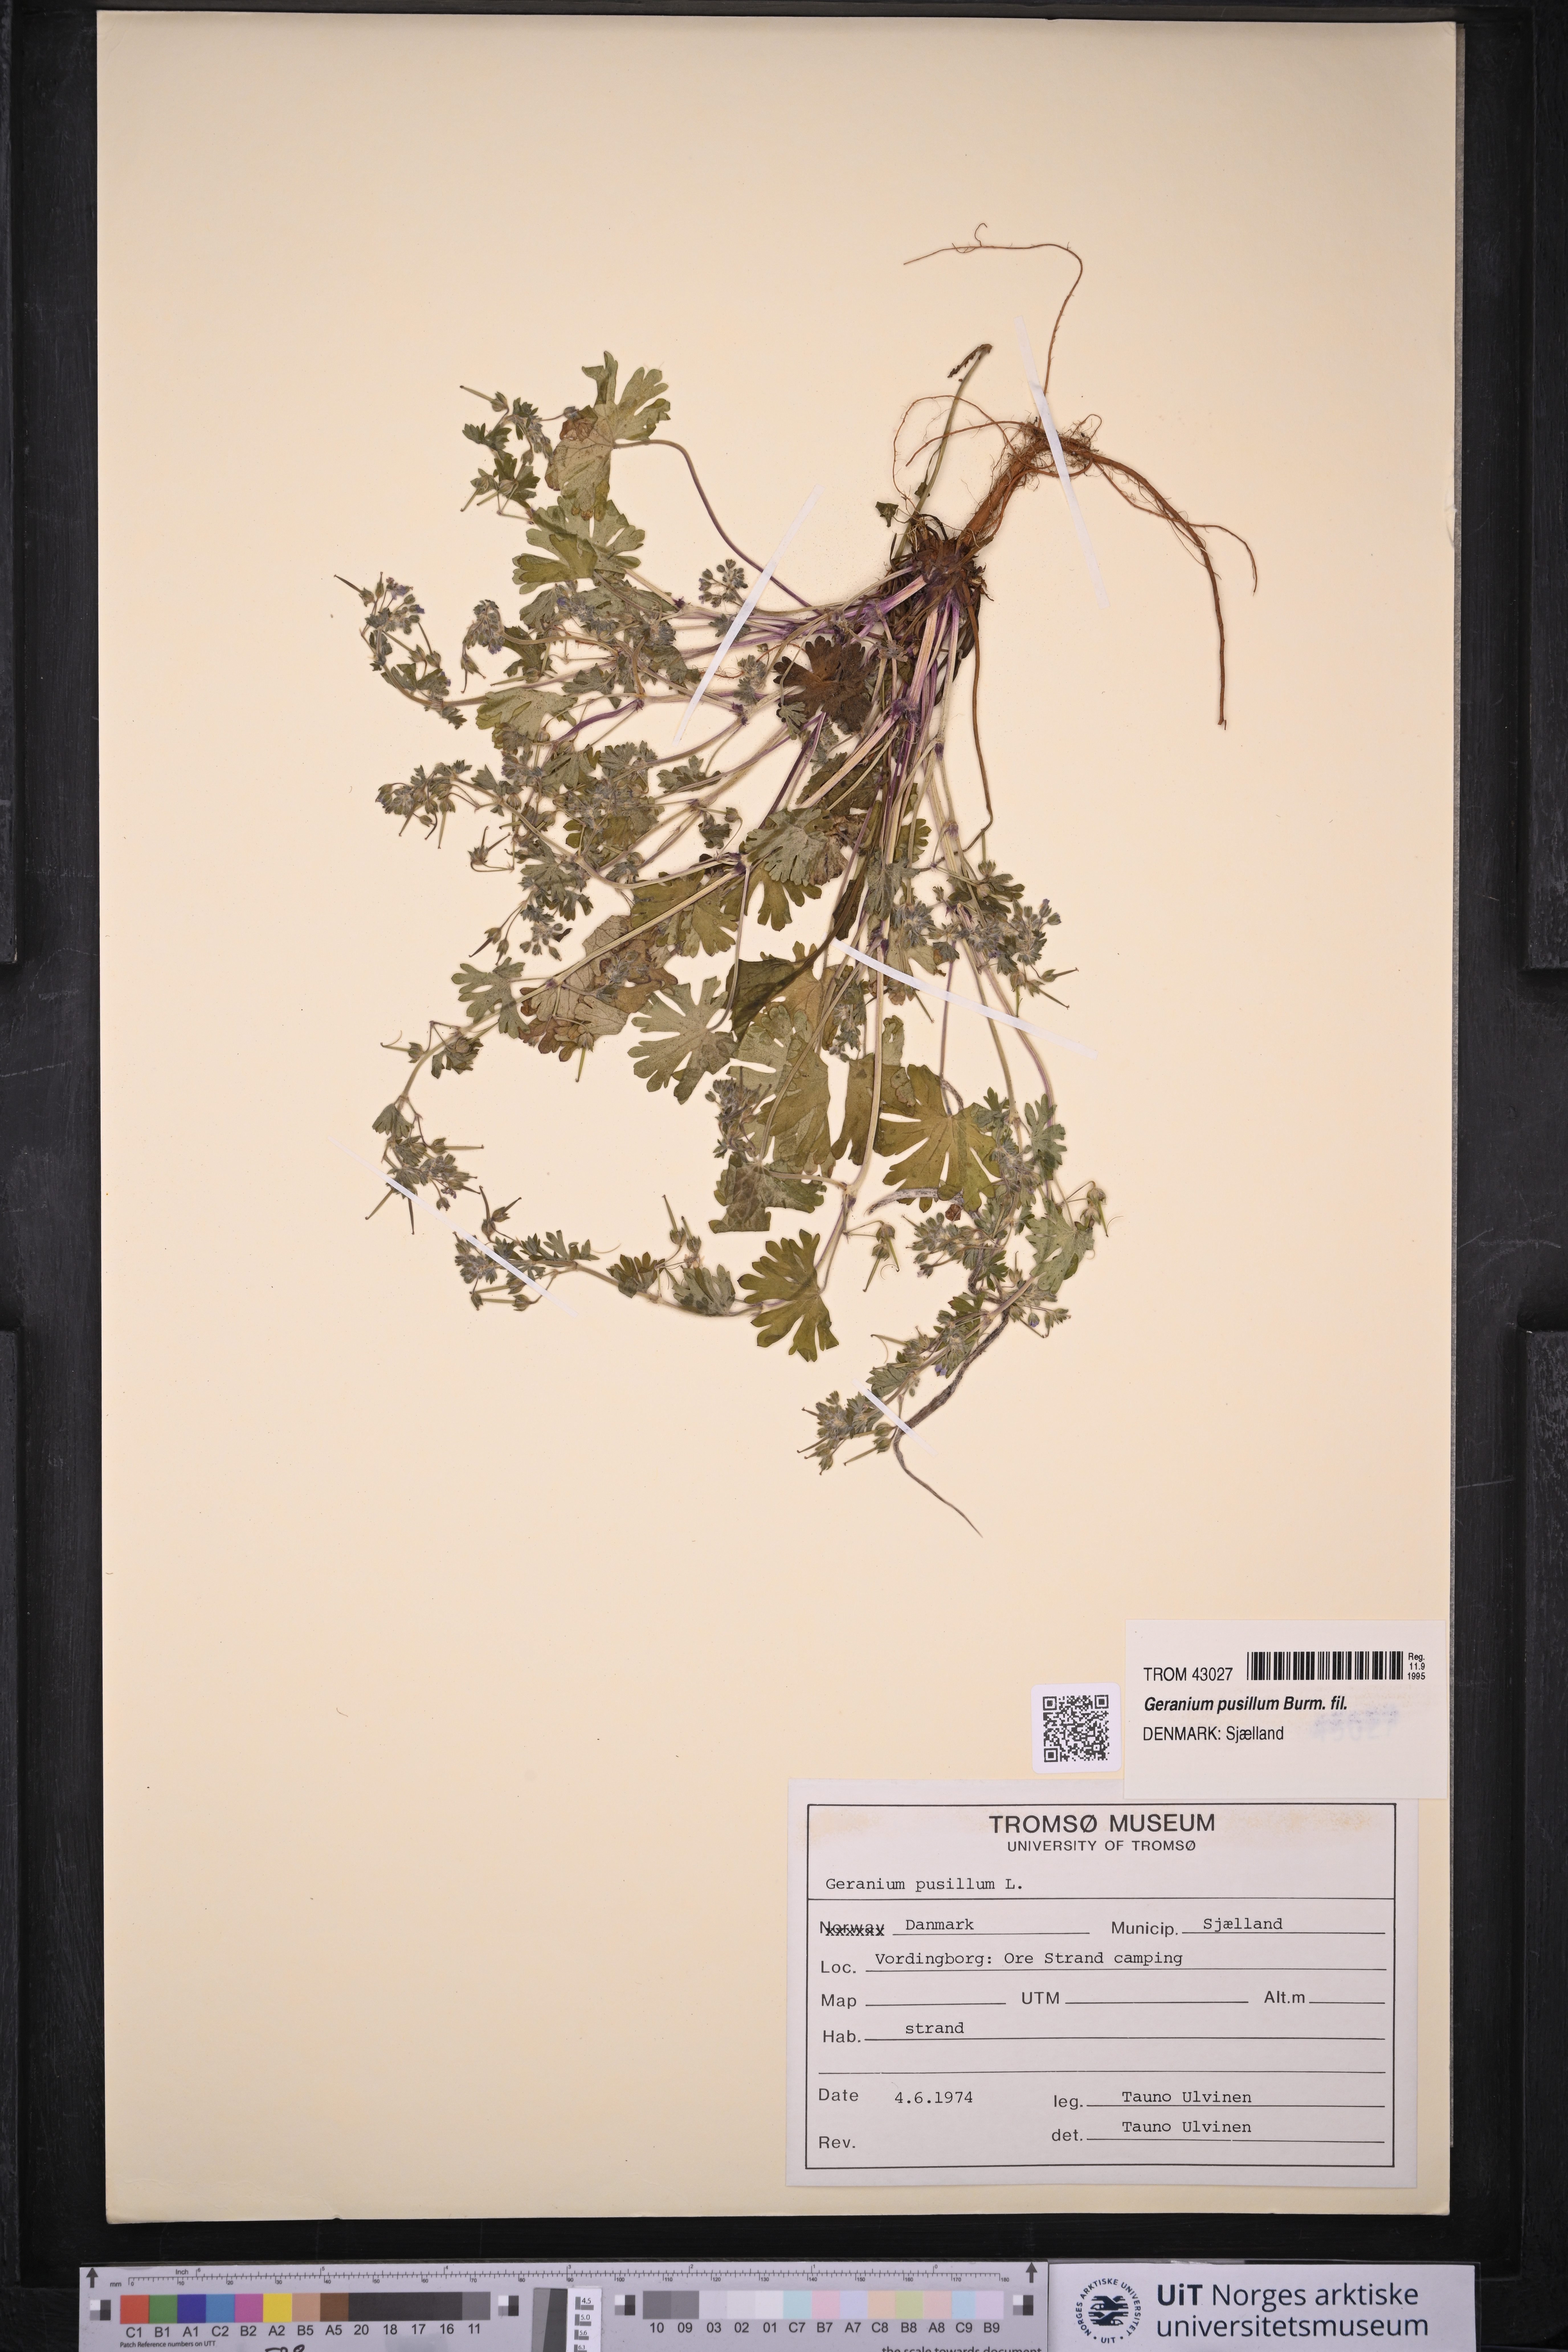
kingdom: Plantae
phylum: Tracheophyta
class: Magnoliopsida
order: Geraniales
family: Geraniaceae
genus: Geranium
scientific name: Geranium pusillum
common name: Small geranium
